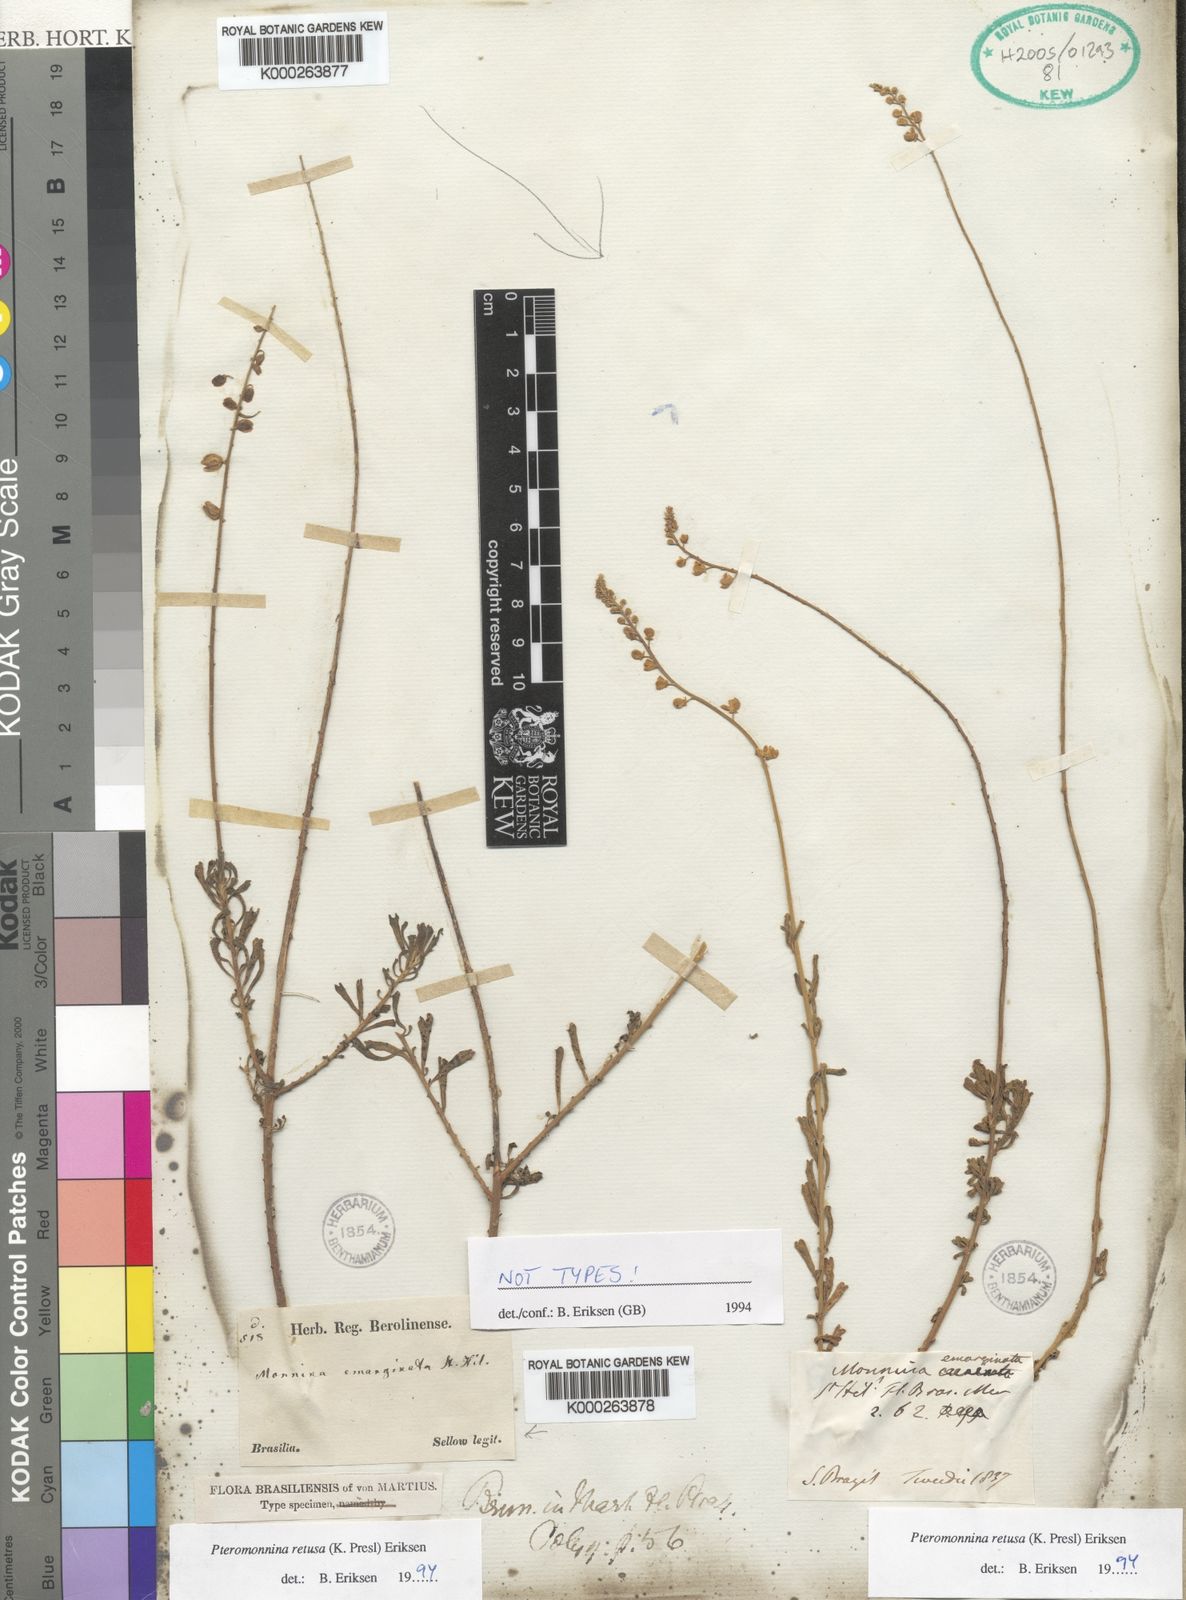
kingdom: Plantae
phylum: Tracheophyta
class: Magnoliopsida
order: Fabales
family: Polygalaceae
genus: Monnina
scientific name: Monnina
